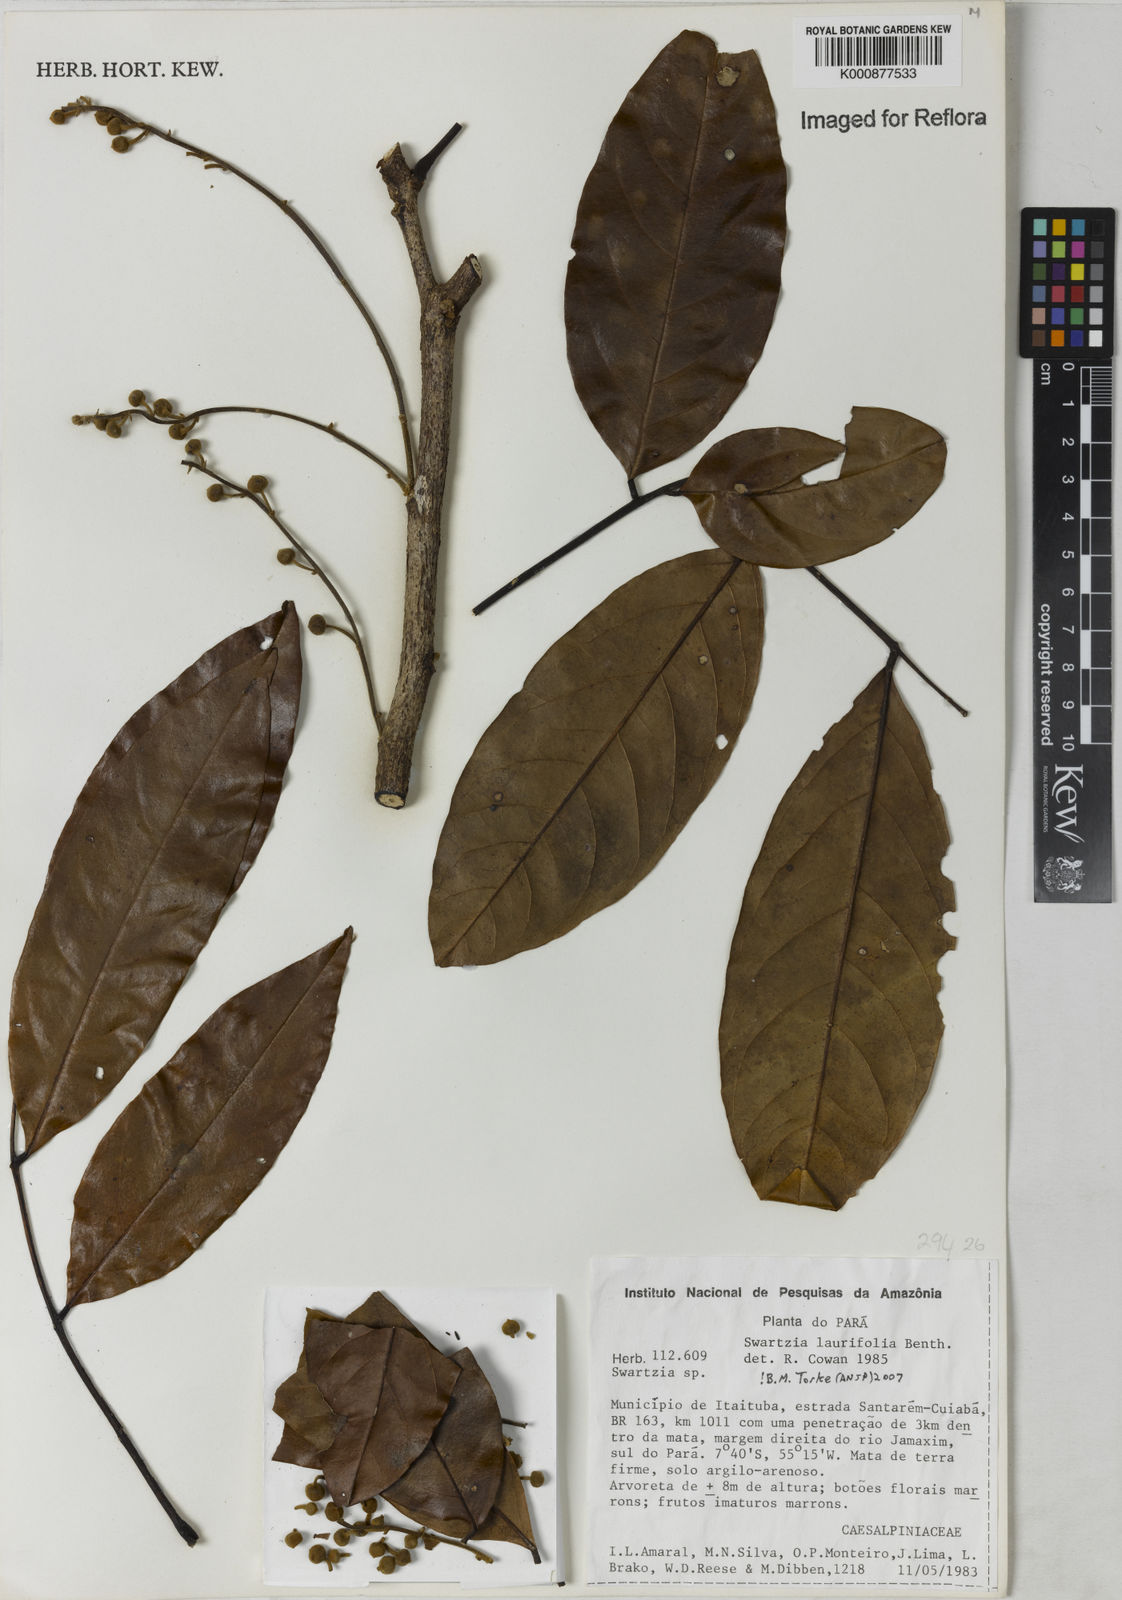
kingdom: Plantae
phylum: Tracheophyta
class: Magnoliopsida
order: Fabales
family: Fabaceae
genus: Swartzia
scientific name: Swartzia laurifolia
